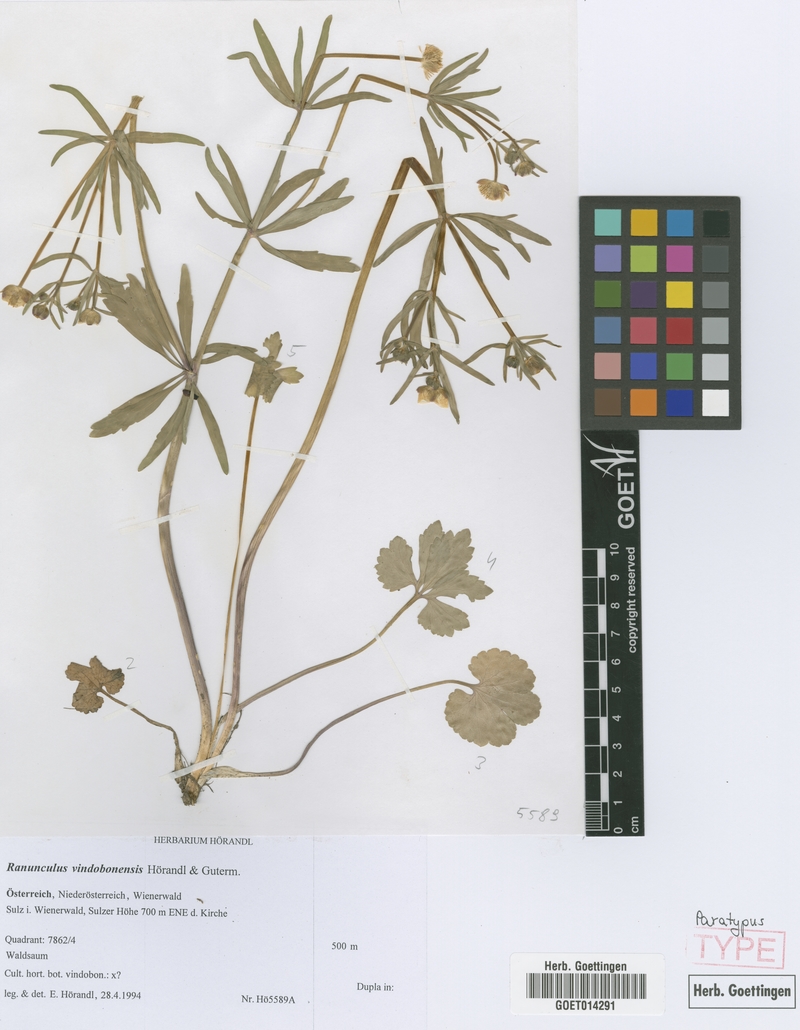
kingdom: Plantae
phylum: Tracheophyta
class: Magnoliopsida
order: Ranunculales
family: Ranunculaceae
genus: Ranunculus
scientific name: Ranunculus vindobonensis
